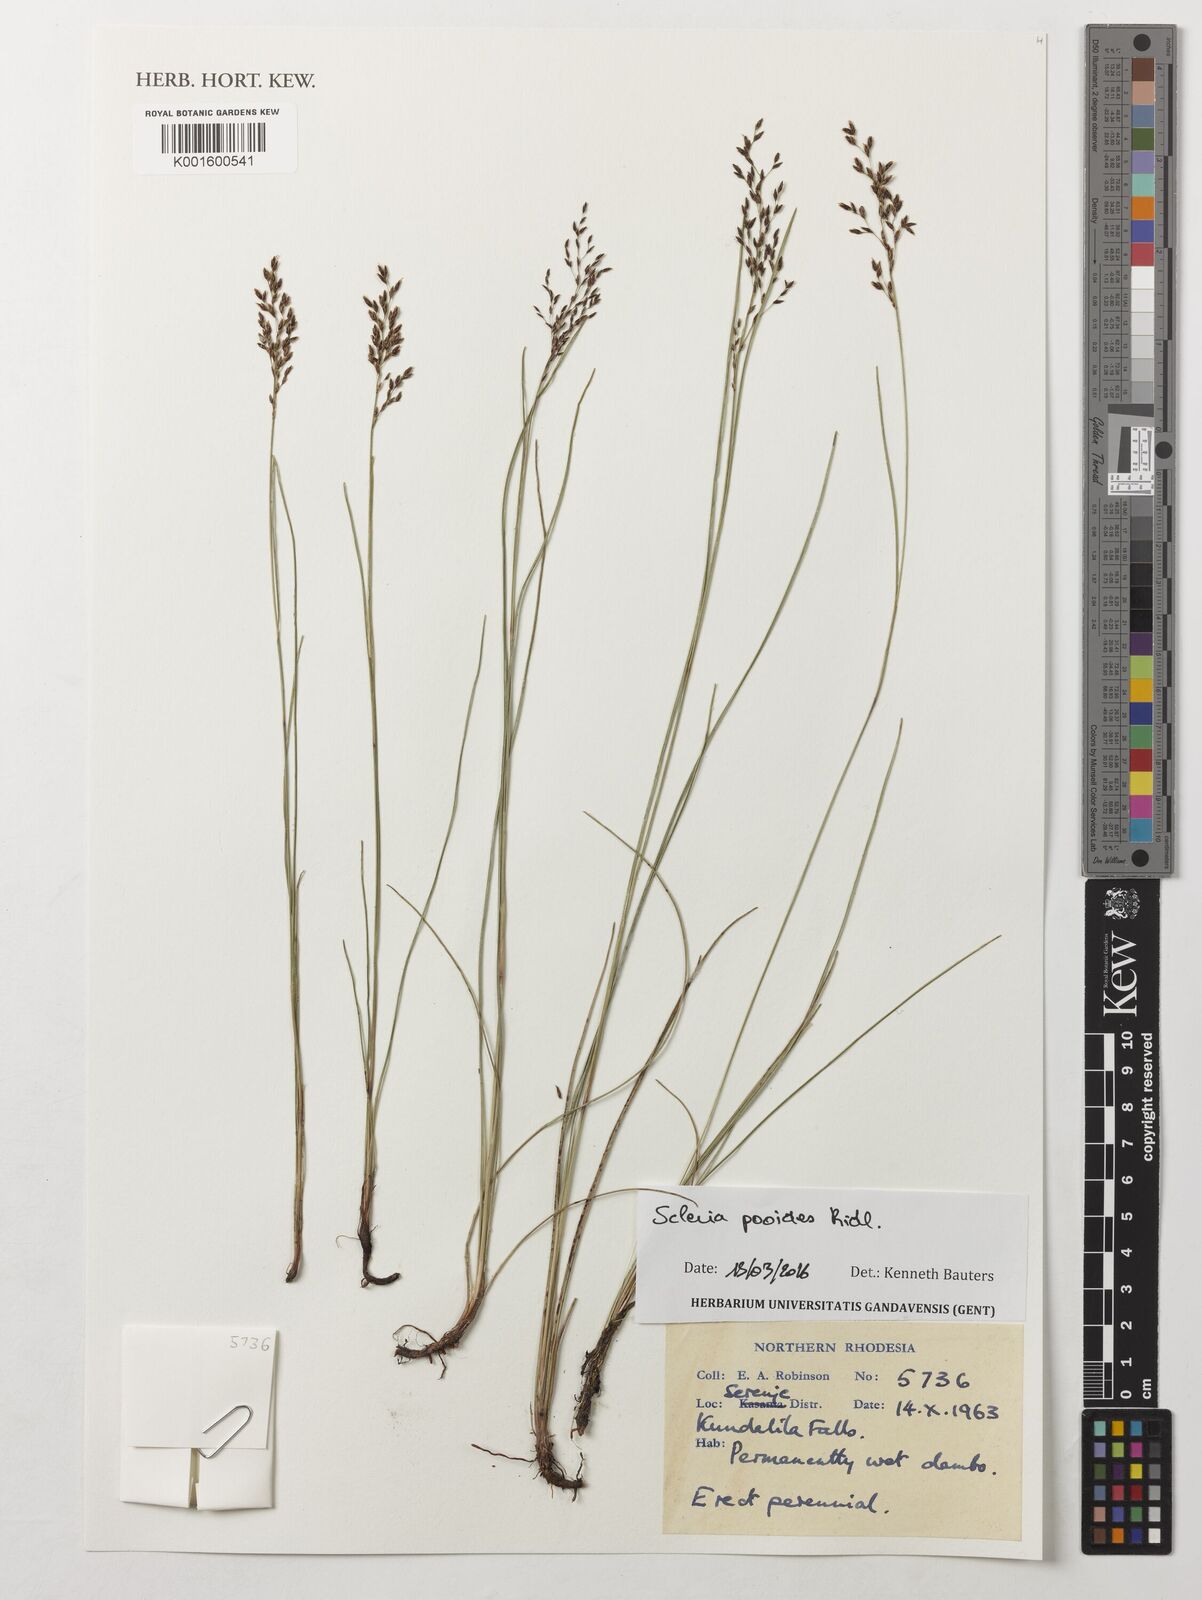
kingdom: Plantae
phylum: Tracheophyta
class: Liliopsida
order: Poales
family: Cyperaceae
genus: Scleria
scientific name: Scleria pooides
